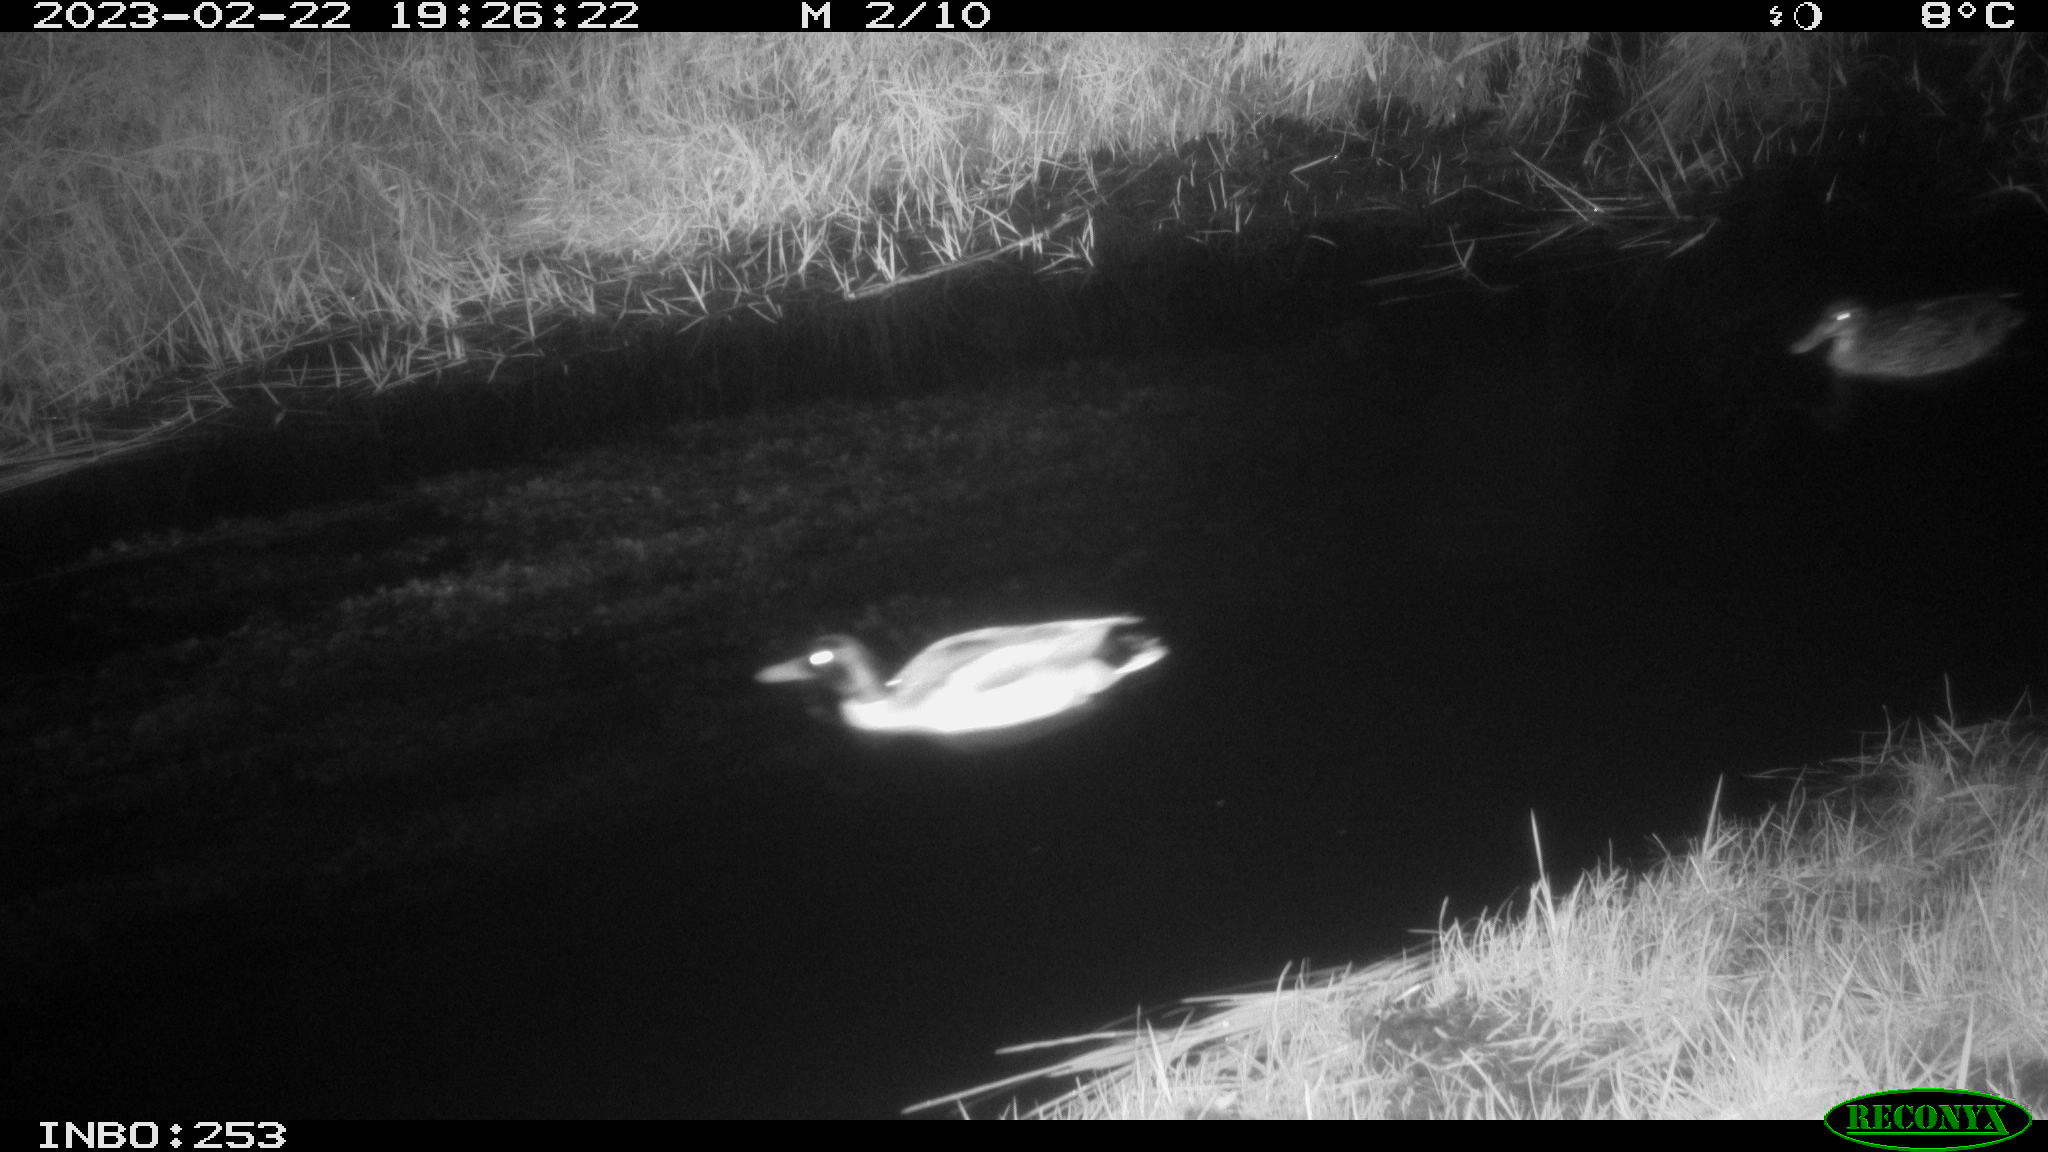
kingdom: Animalia
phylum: Chordata
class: Aves
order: Anseriformes
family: Anatidae
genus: Anas
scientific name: Anas
